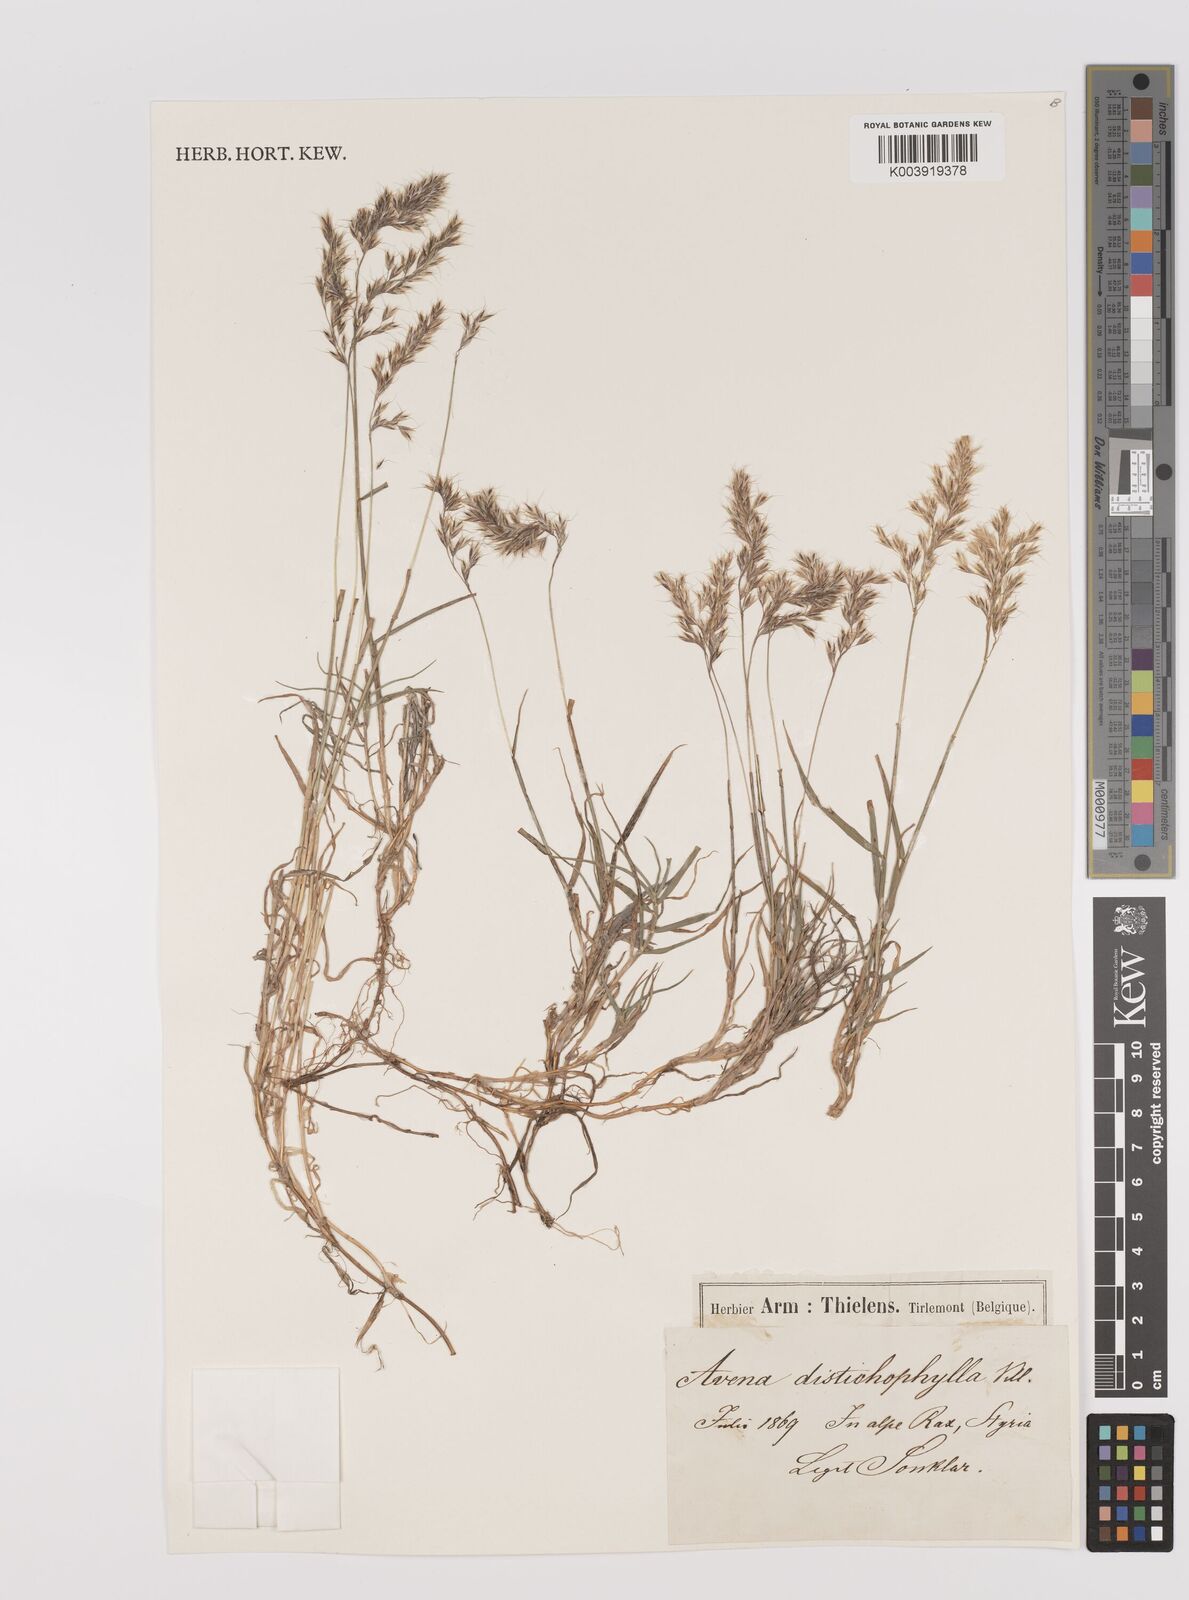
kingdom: Plantae
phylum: Tracheophyta
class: Liliopsida
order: Poales
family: Poaceae
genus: Acrospelion
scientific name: Acrospelion distichophyllum
